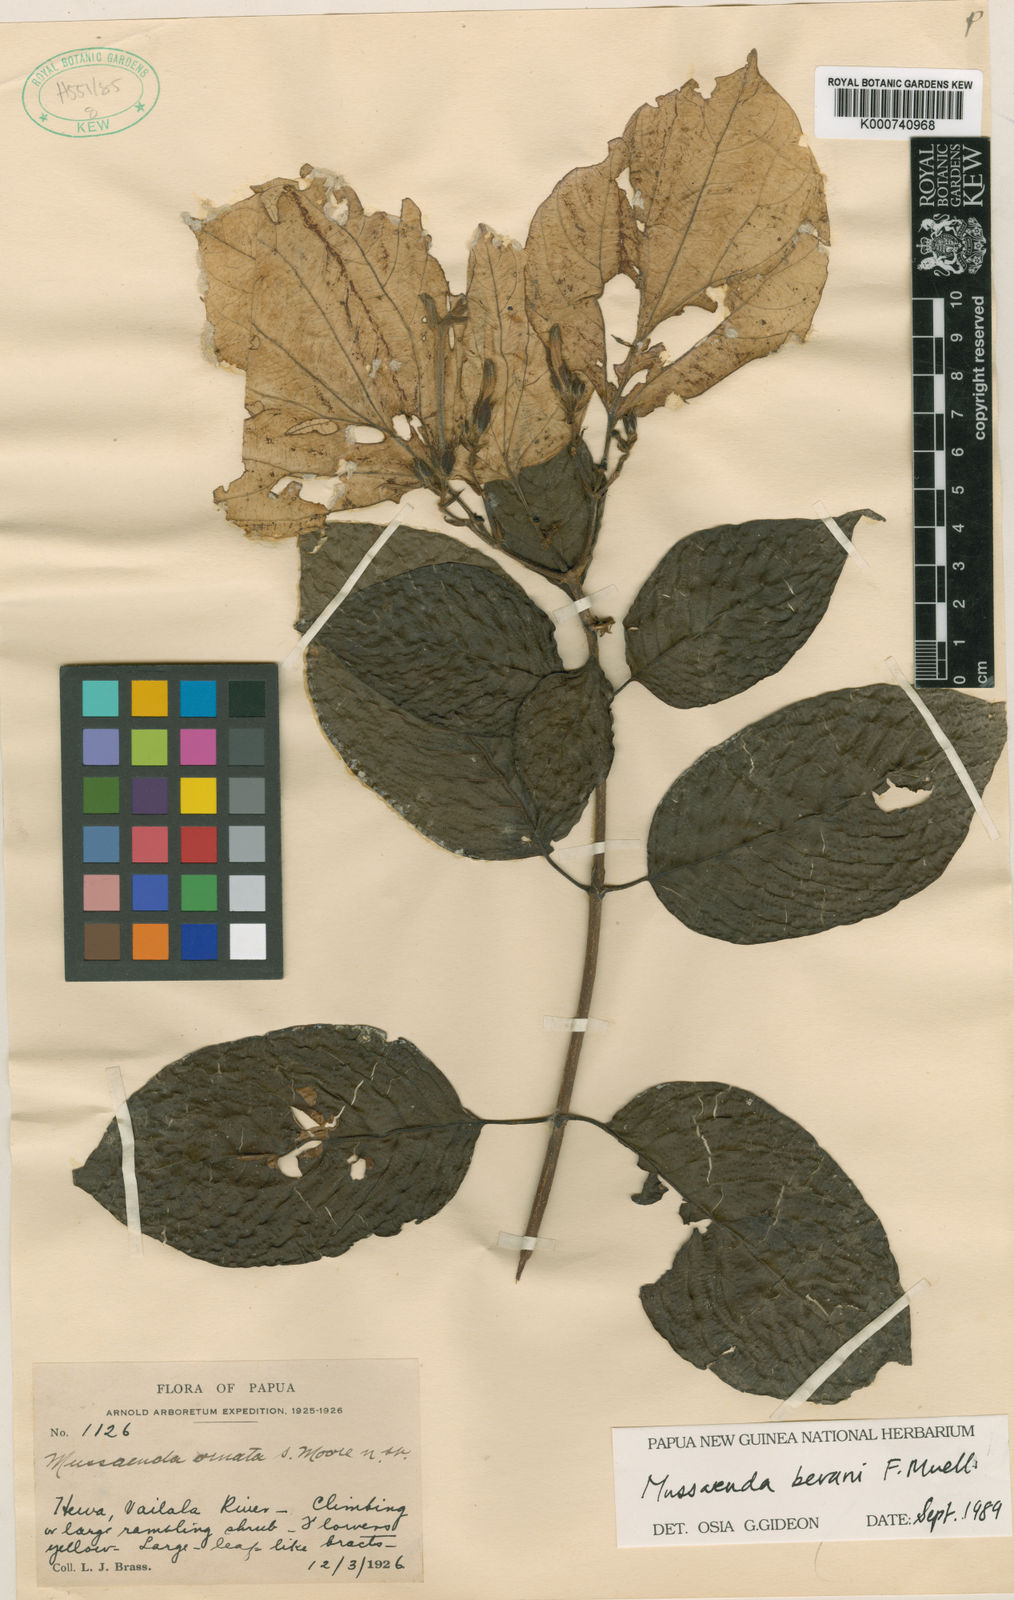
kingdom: Plantae
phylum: Tracheophyta
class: Magnoliopsida
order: Gentianales
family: Rubiaceae
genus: Mussaenda
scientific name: Mussaenda bevanii
